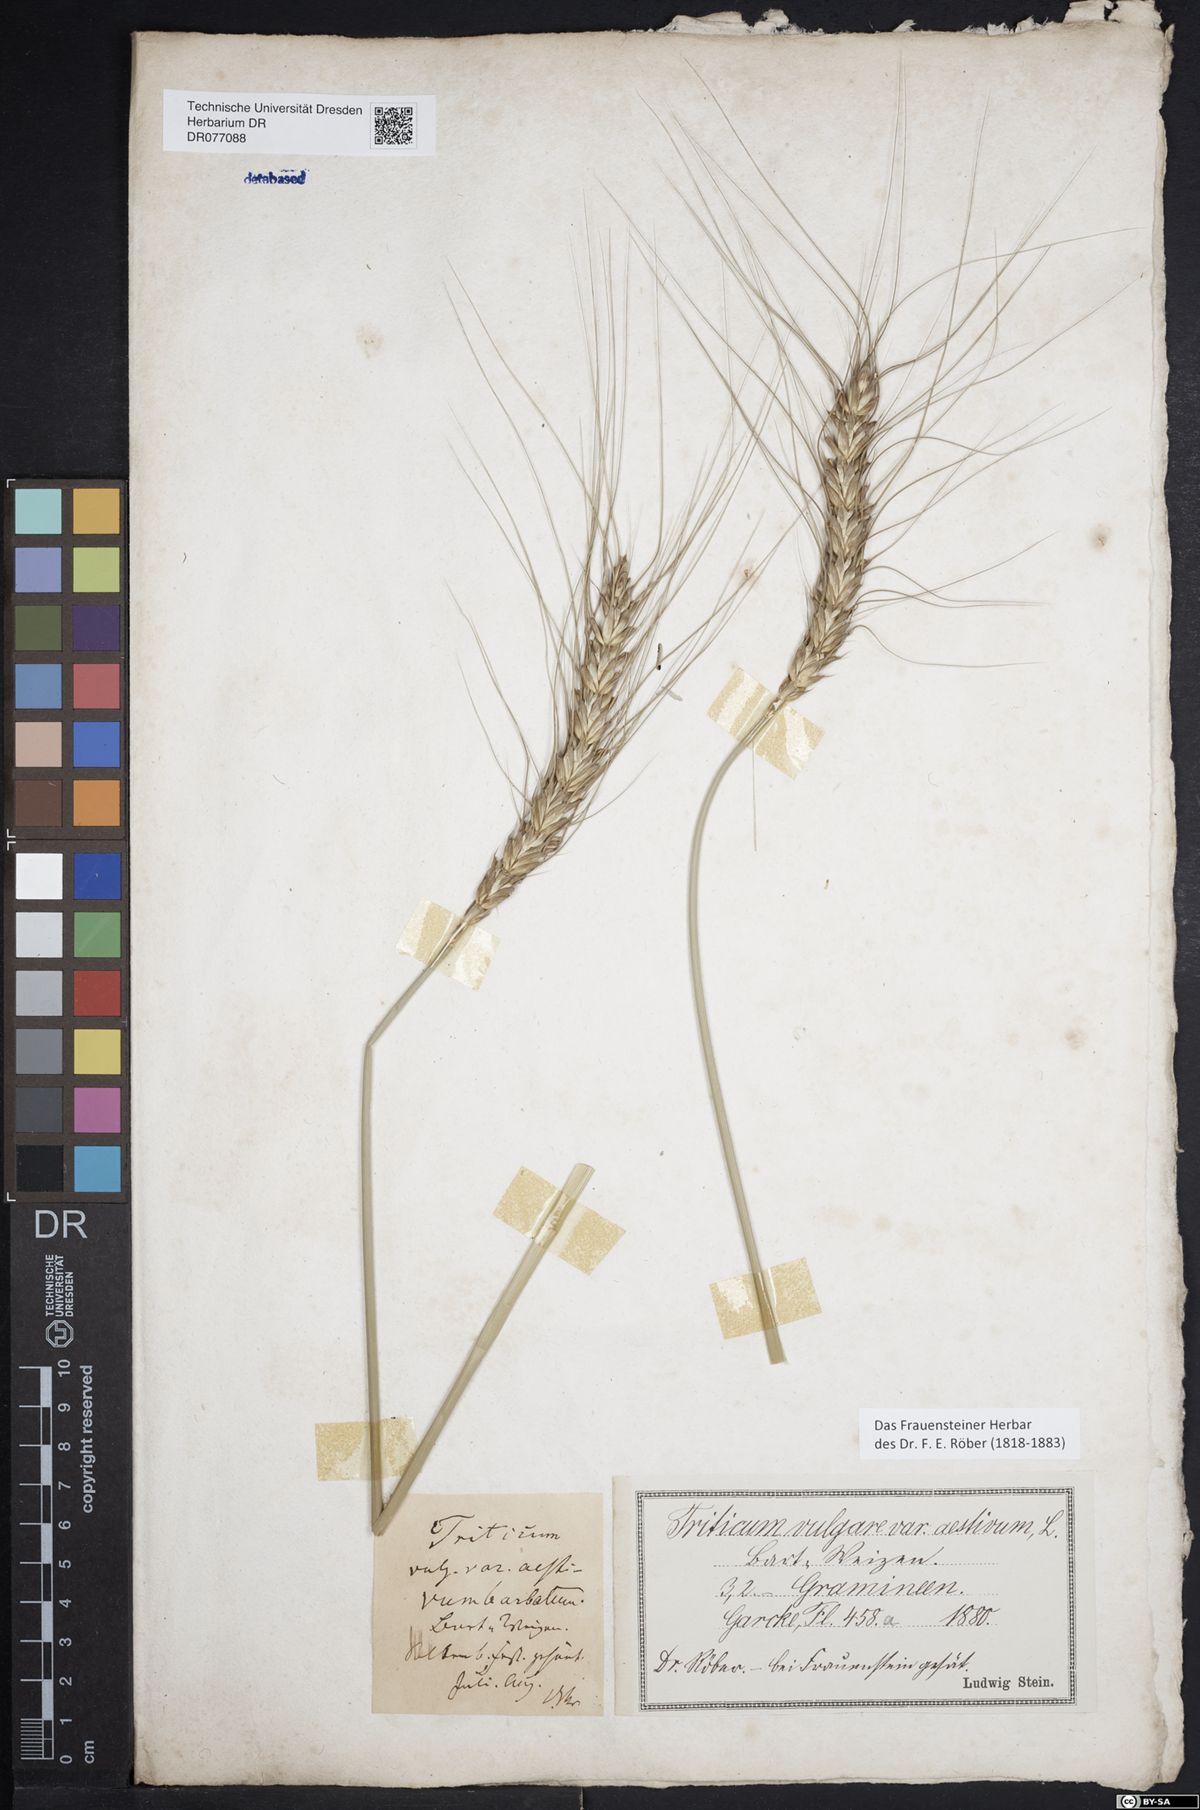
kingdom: Plantae
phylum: Tracheophyta
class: Liliopsida
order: Poales
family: Poaceae
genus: Triticum
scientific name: Triticum aestivum
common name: Common wheat
